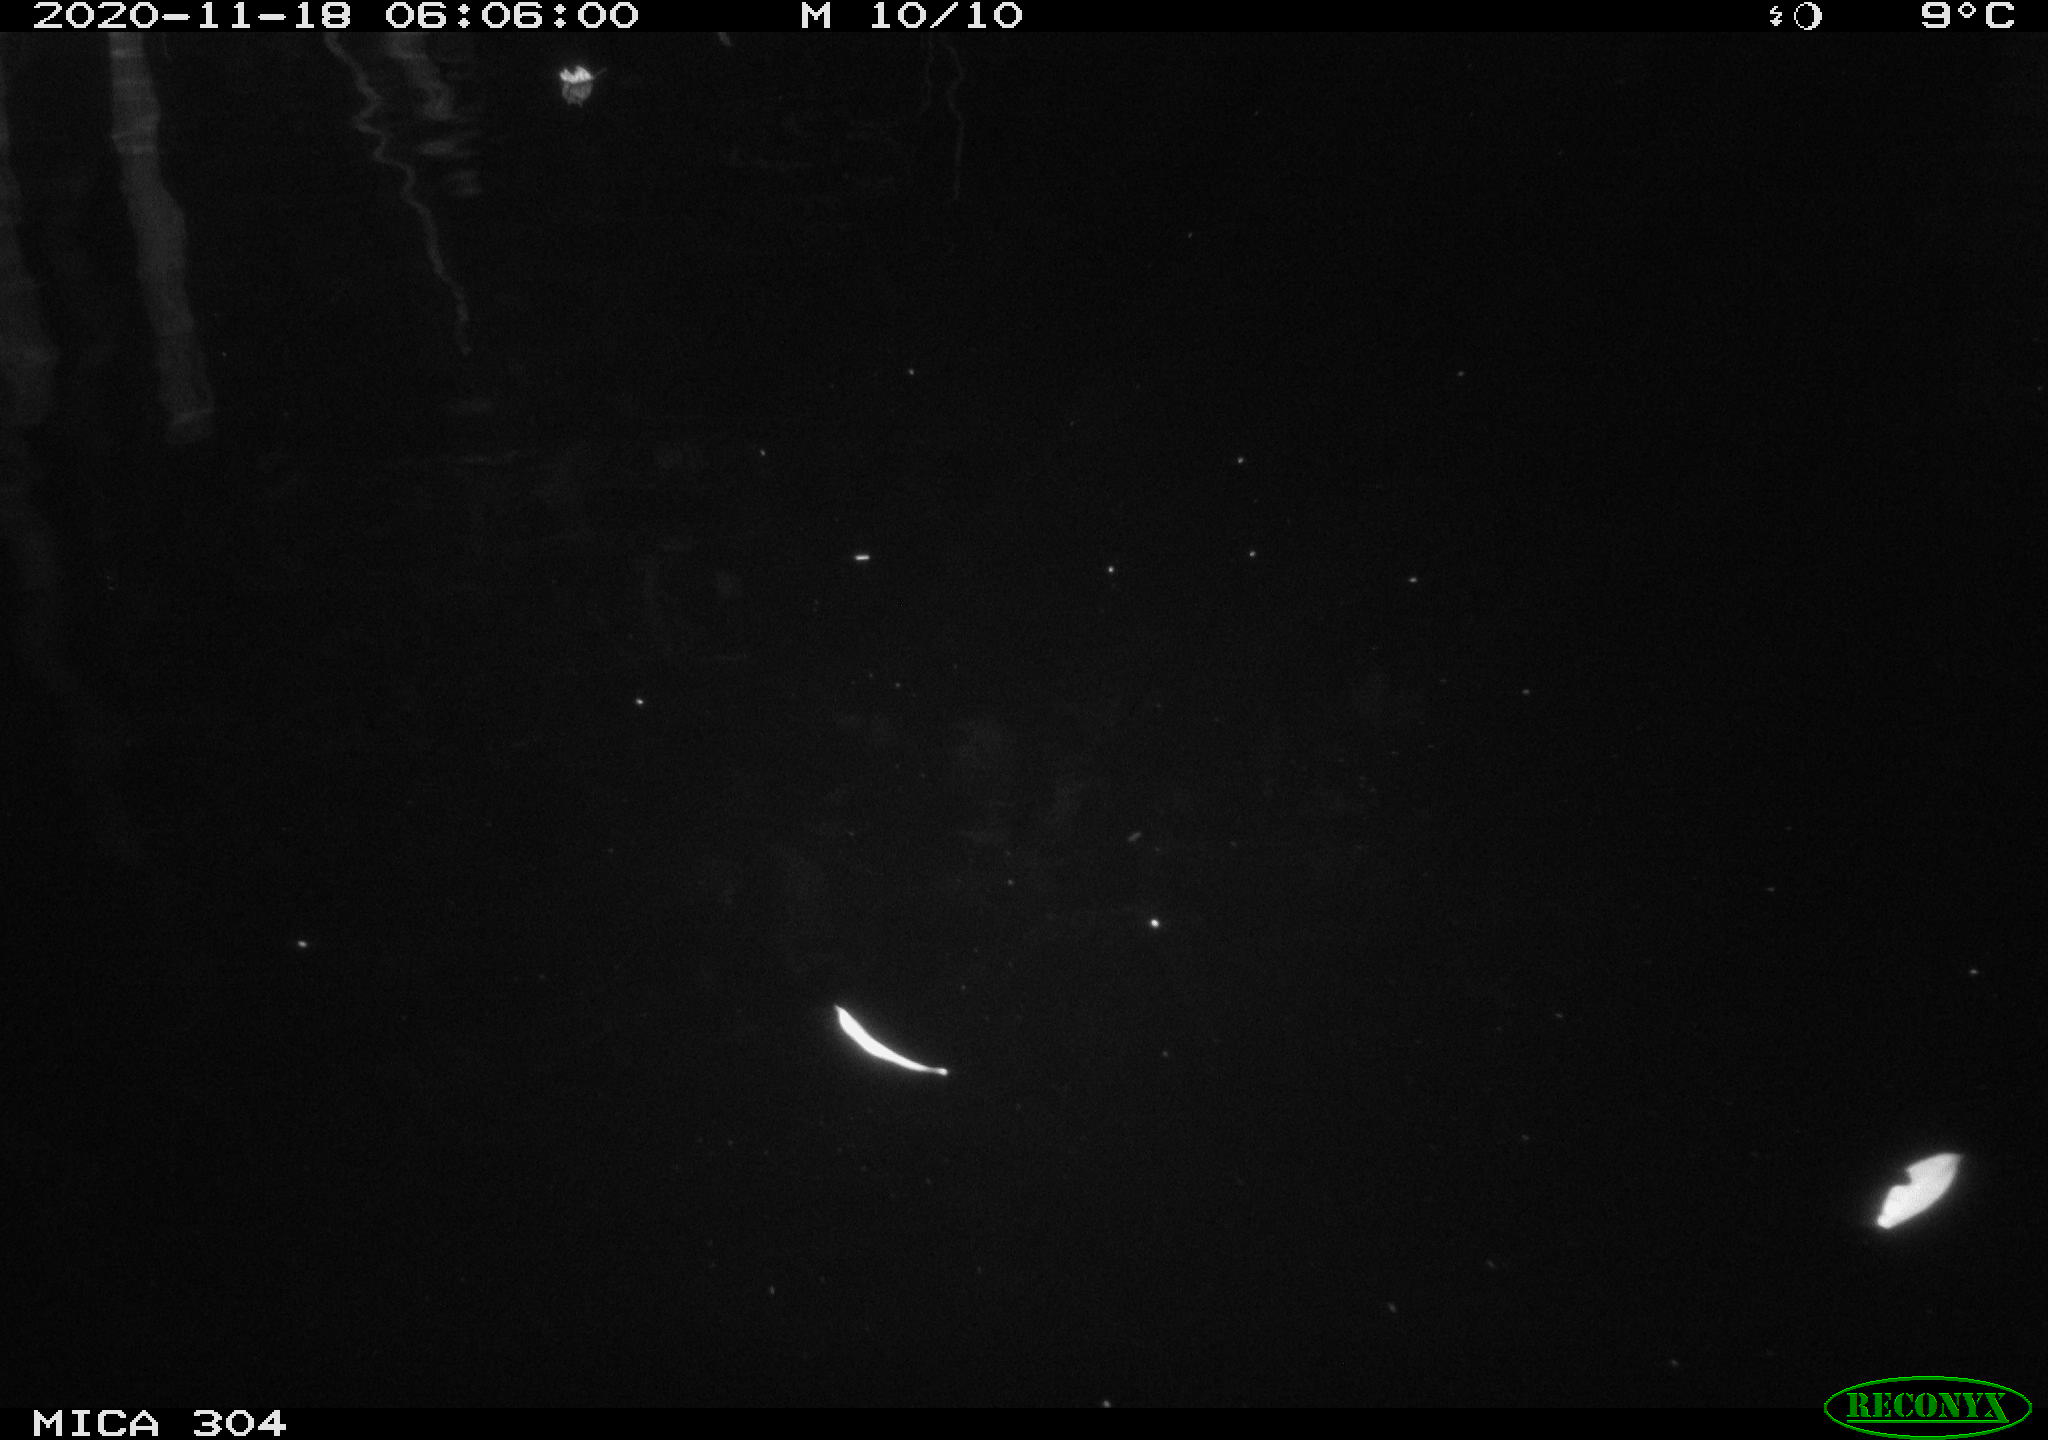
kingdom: Animalia
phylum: Chordata
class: Aves
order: Anseriformes
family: Anatidae
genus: Anas
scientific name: Anas platyrhynchos
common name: Mallard
